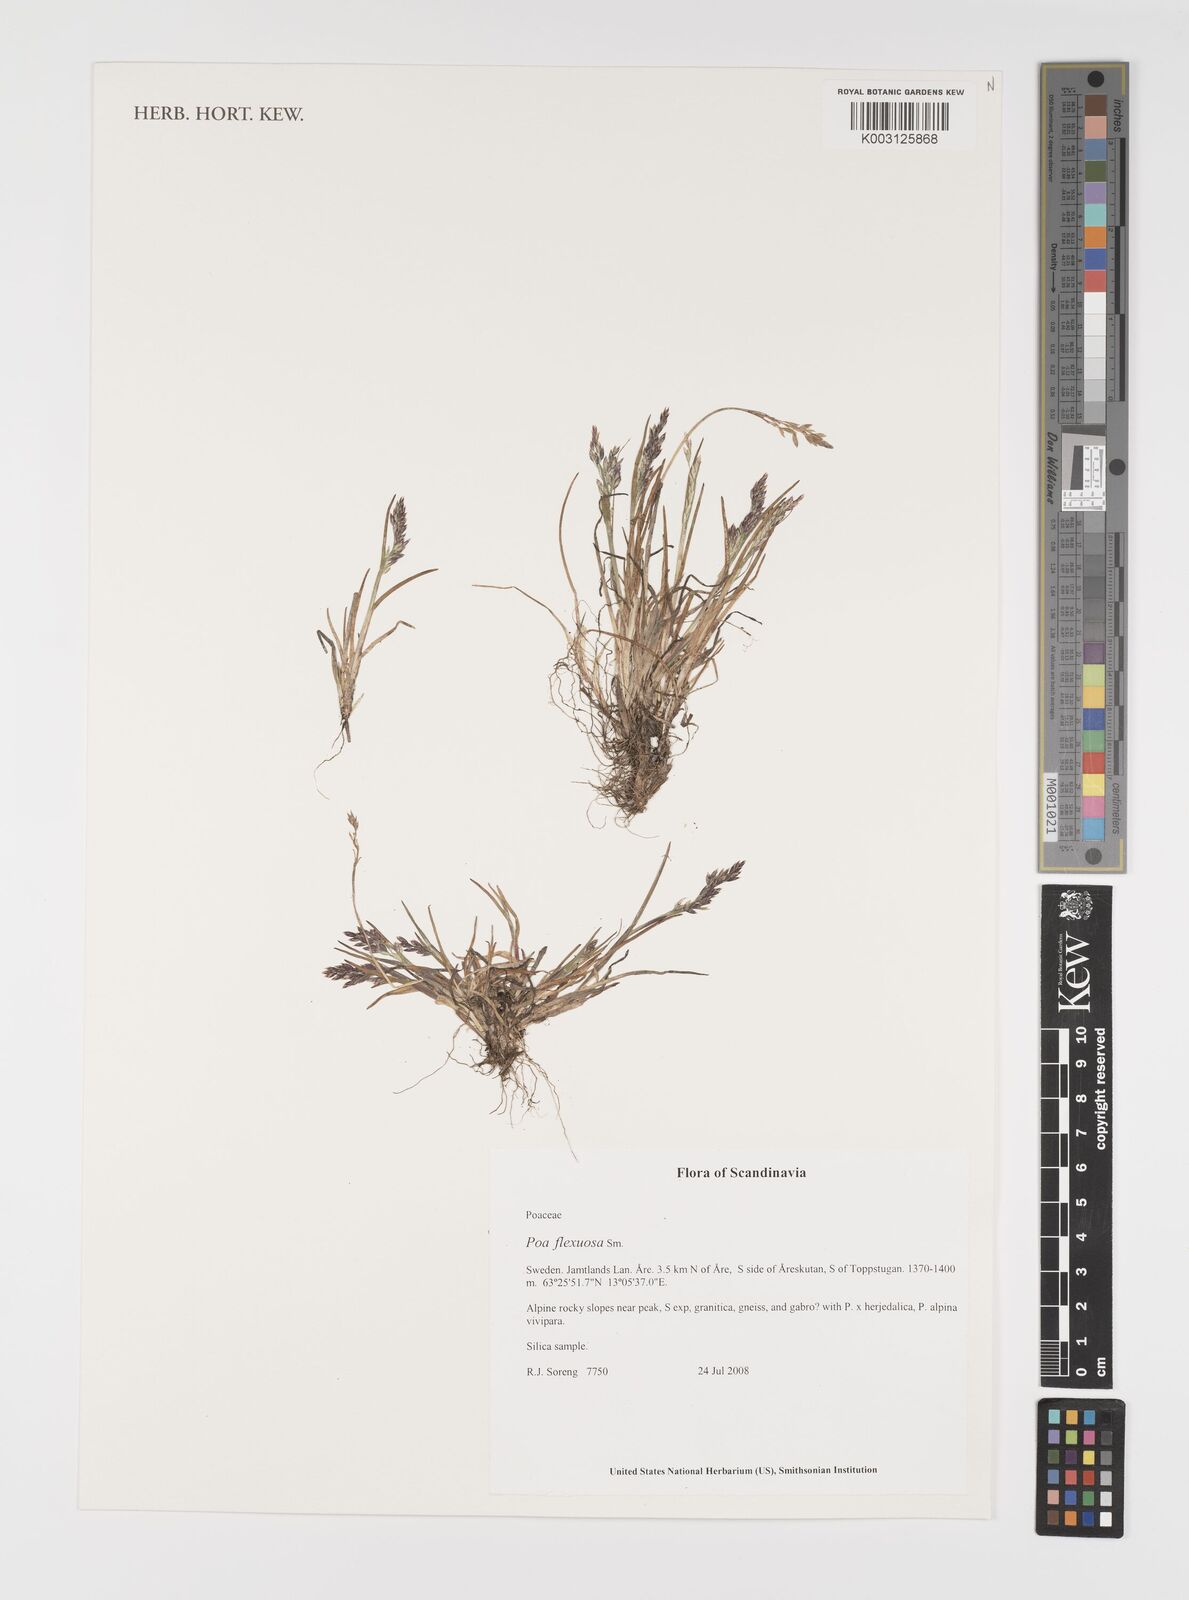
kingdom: Plantae
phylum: Tracheophyta
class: Liliopsida
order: Poales
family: Poaceae
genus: Eragrostis
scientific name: Eragrostis cilianensis
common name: Stinkgrass
